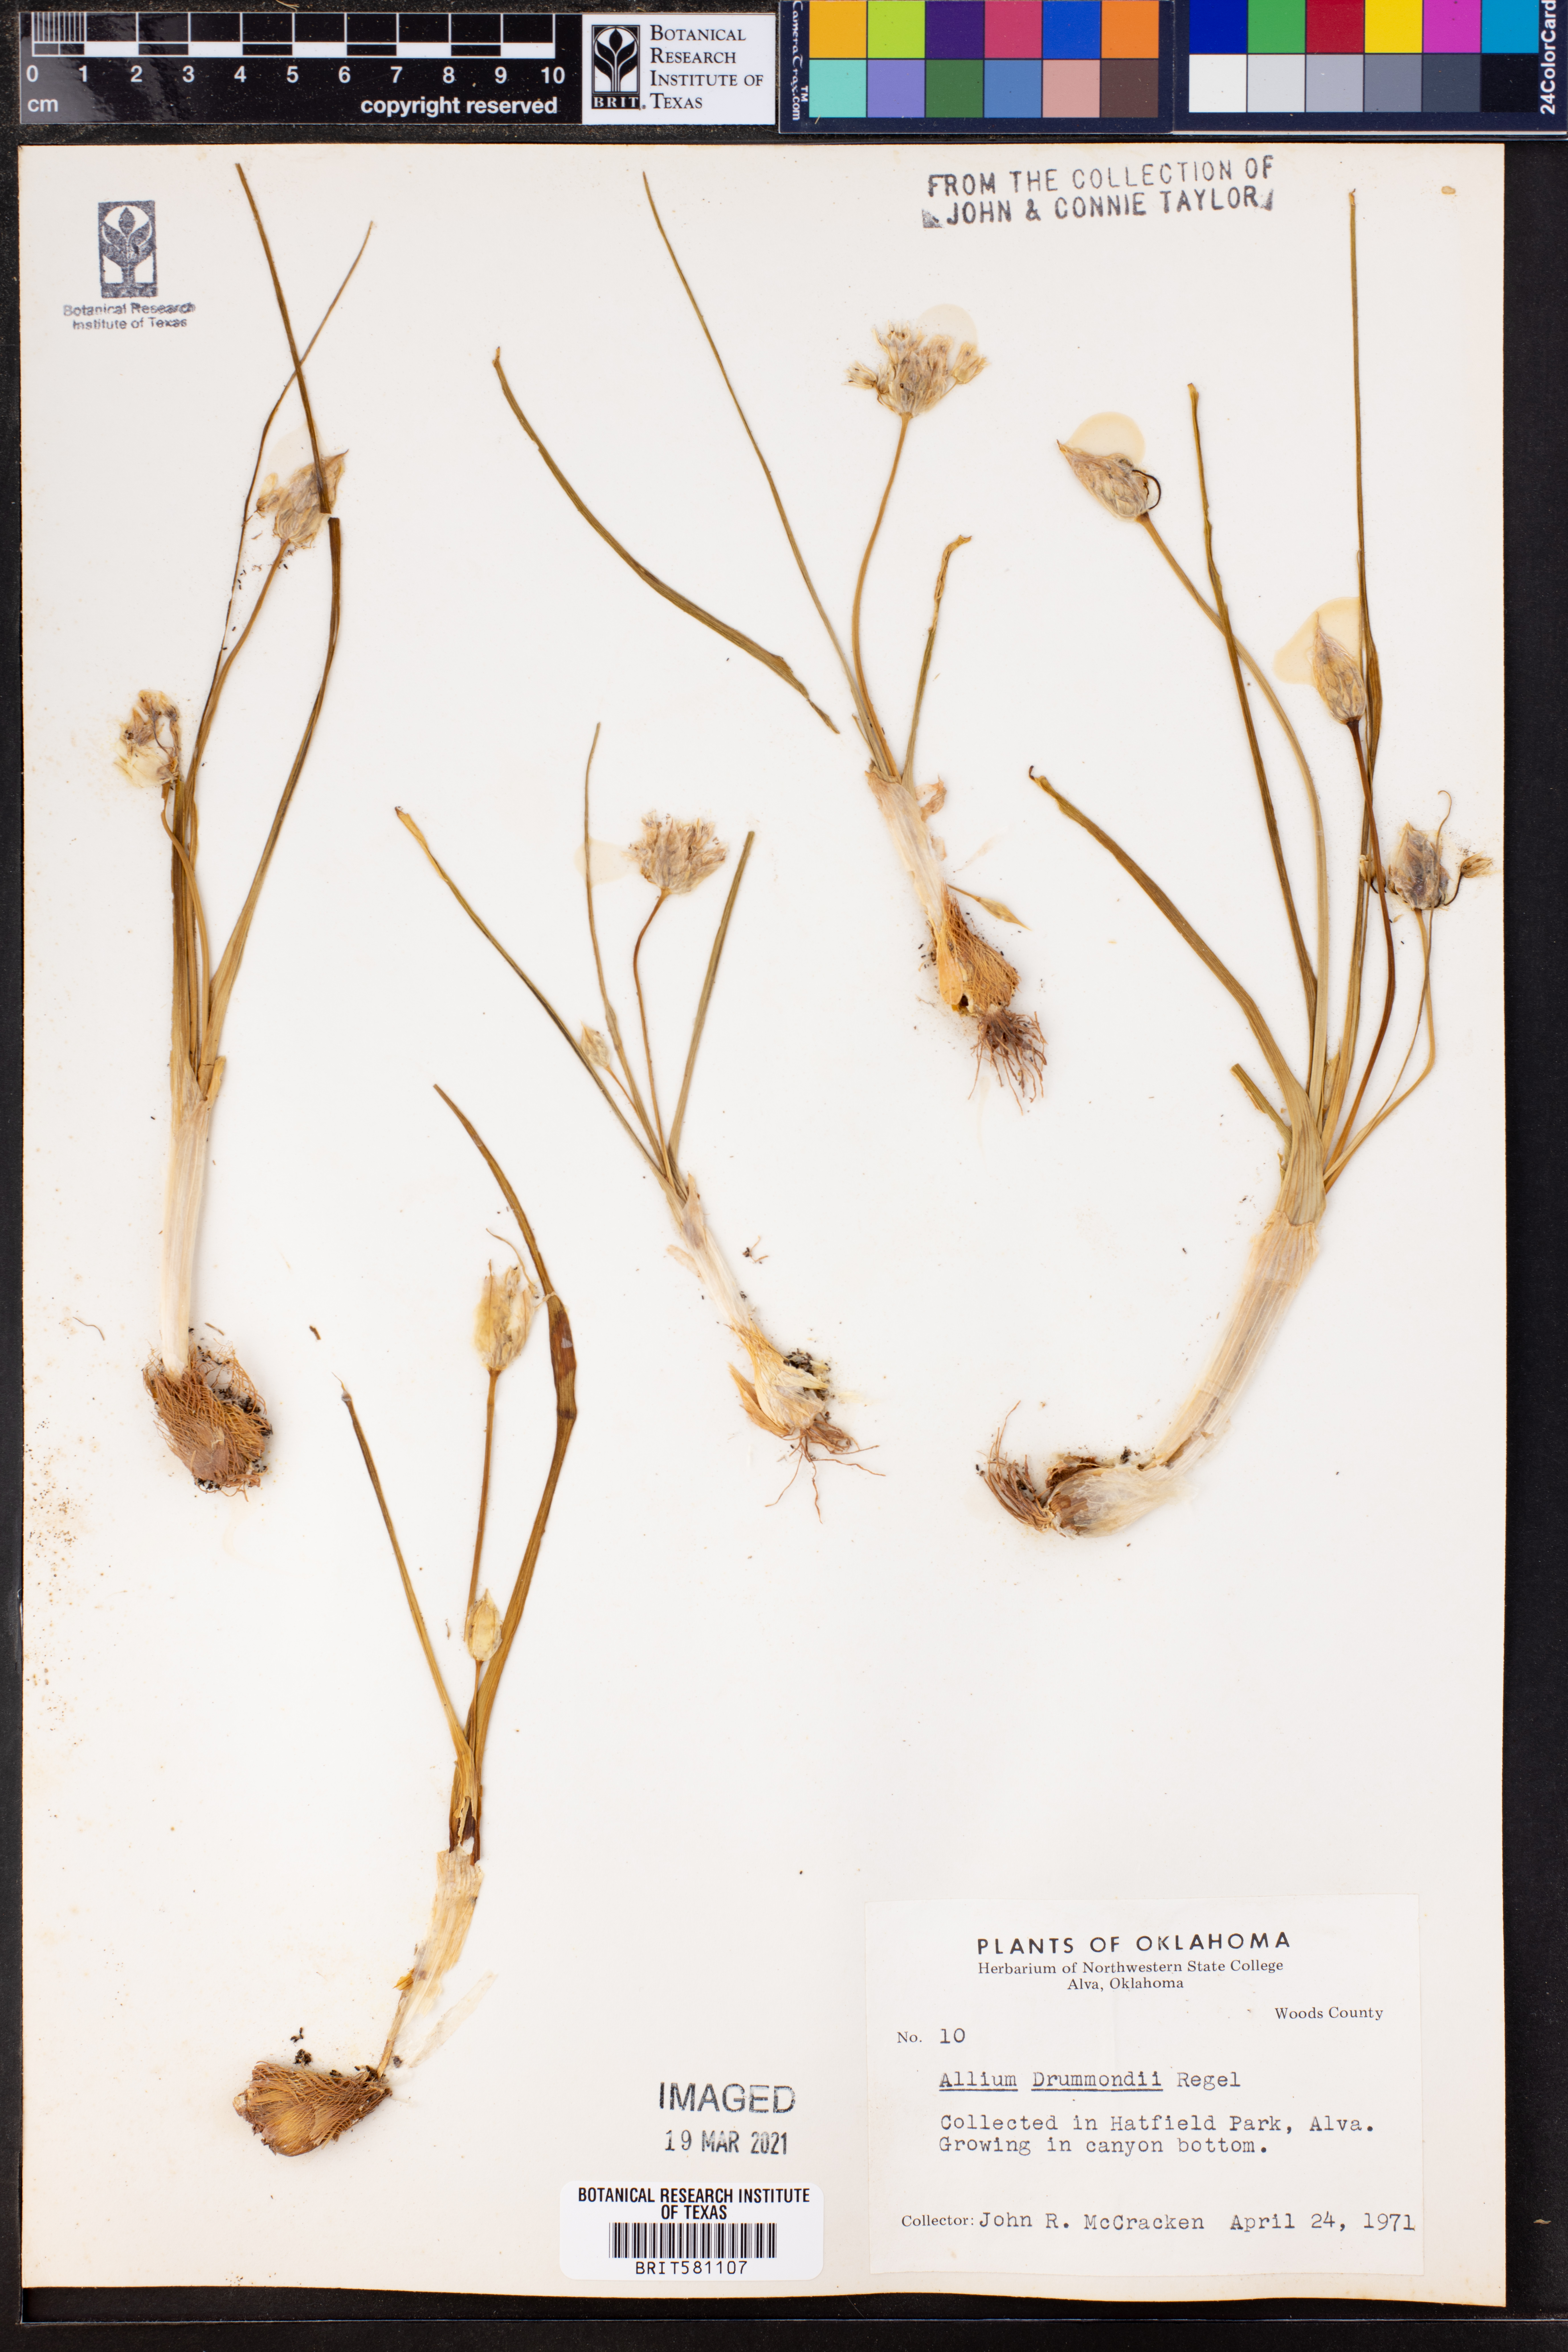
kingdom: Plantae
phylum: Tracheophyta
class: Liliopsida
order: Asparagales
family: Amaryllidaceae
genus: Allium
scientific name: Allium drummondii
